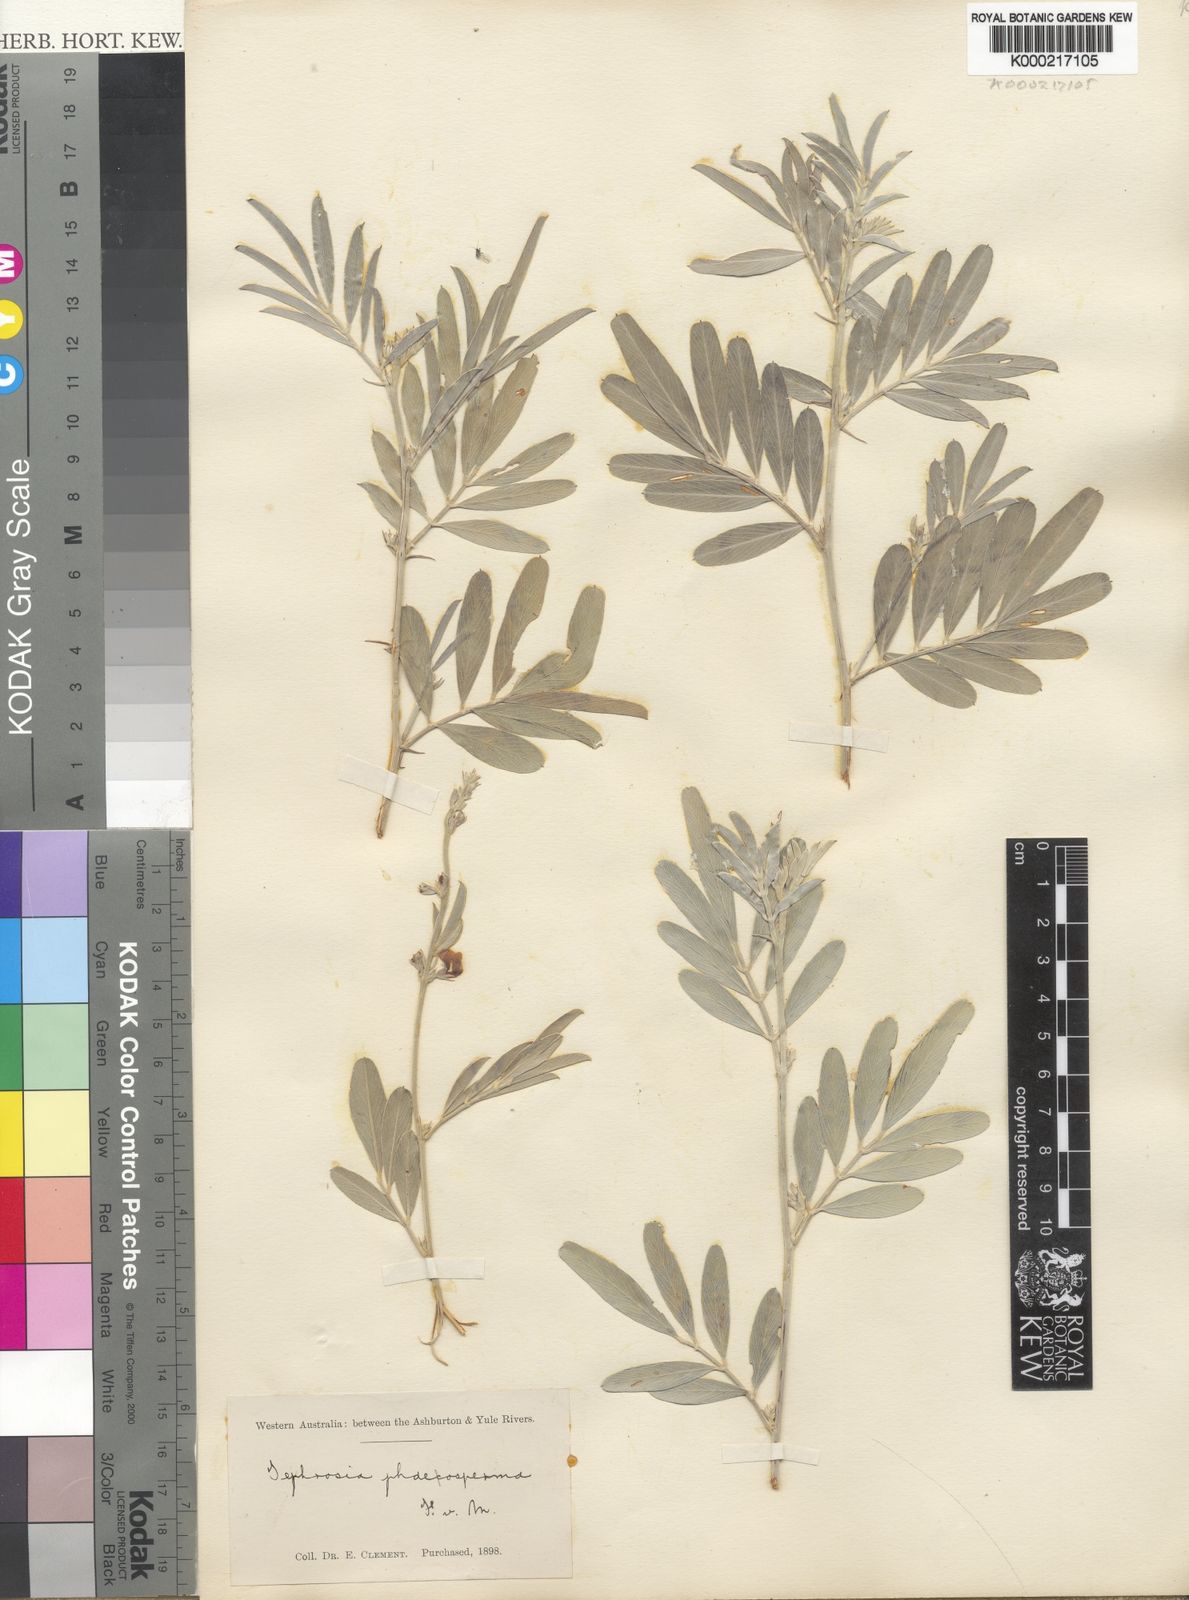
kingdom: Plantae
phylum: Tracheophyta
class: Magnoliopsida
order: Fabales
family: Fabaceae
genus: Tephrosia
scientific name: Tephrosia phaeosperma
